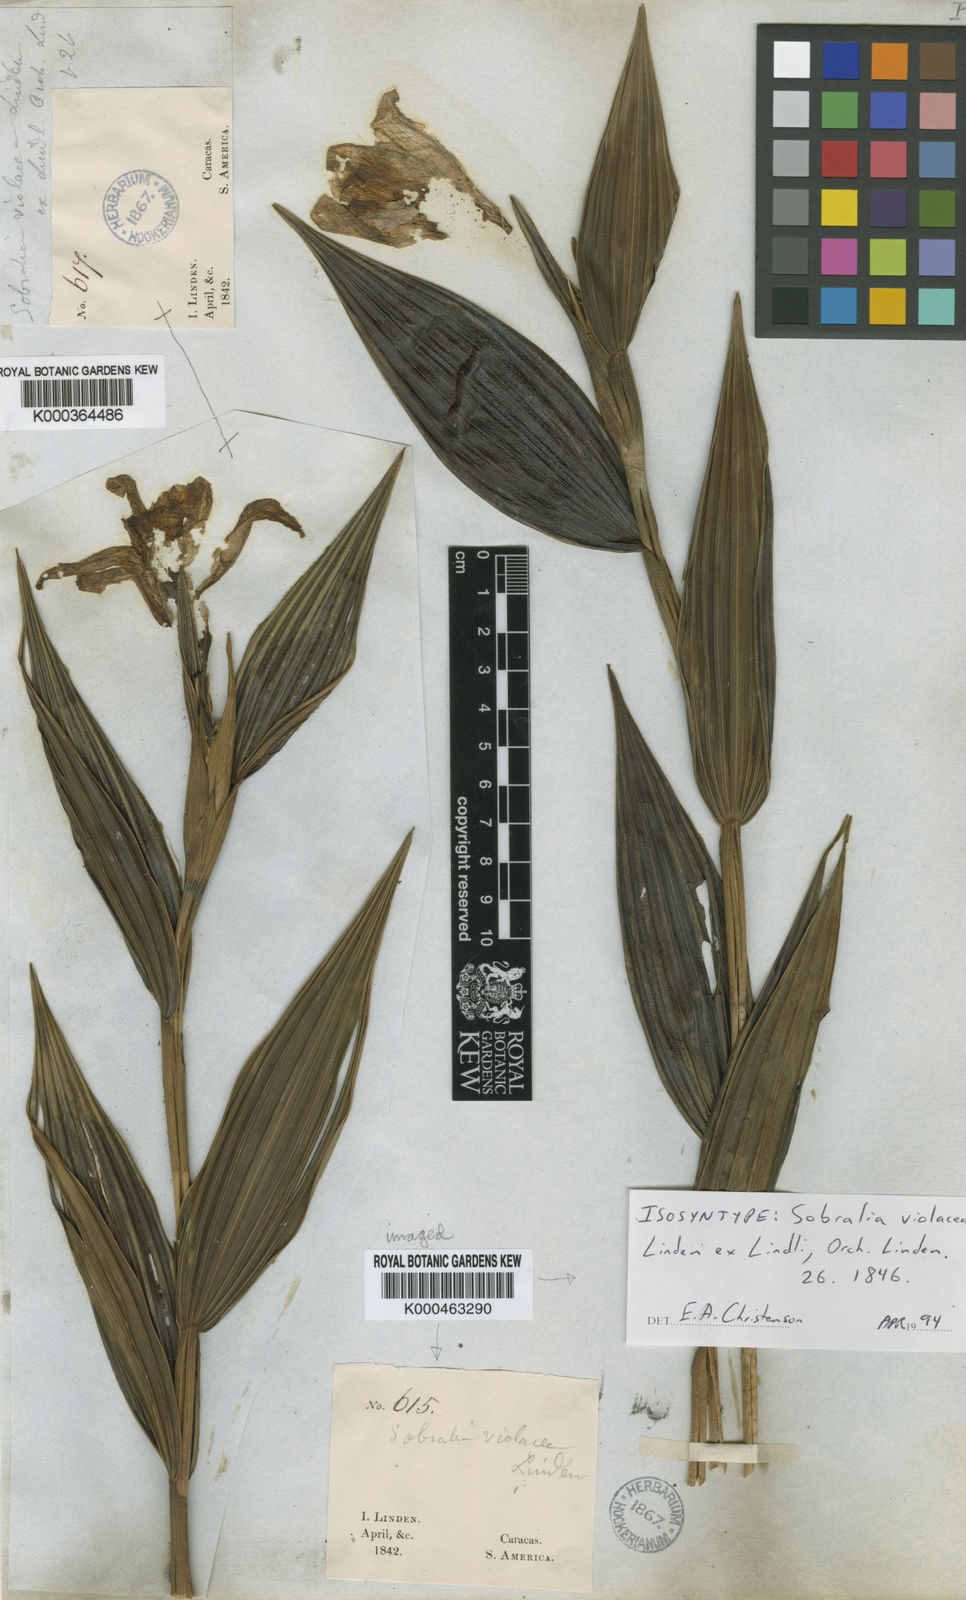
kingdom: Plantae
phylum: Tracheophyta
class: Liliopsida
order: Asparagales
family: Orchidaceae
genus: Sobralia
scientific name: Sobralia violacea
